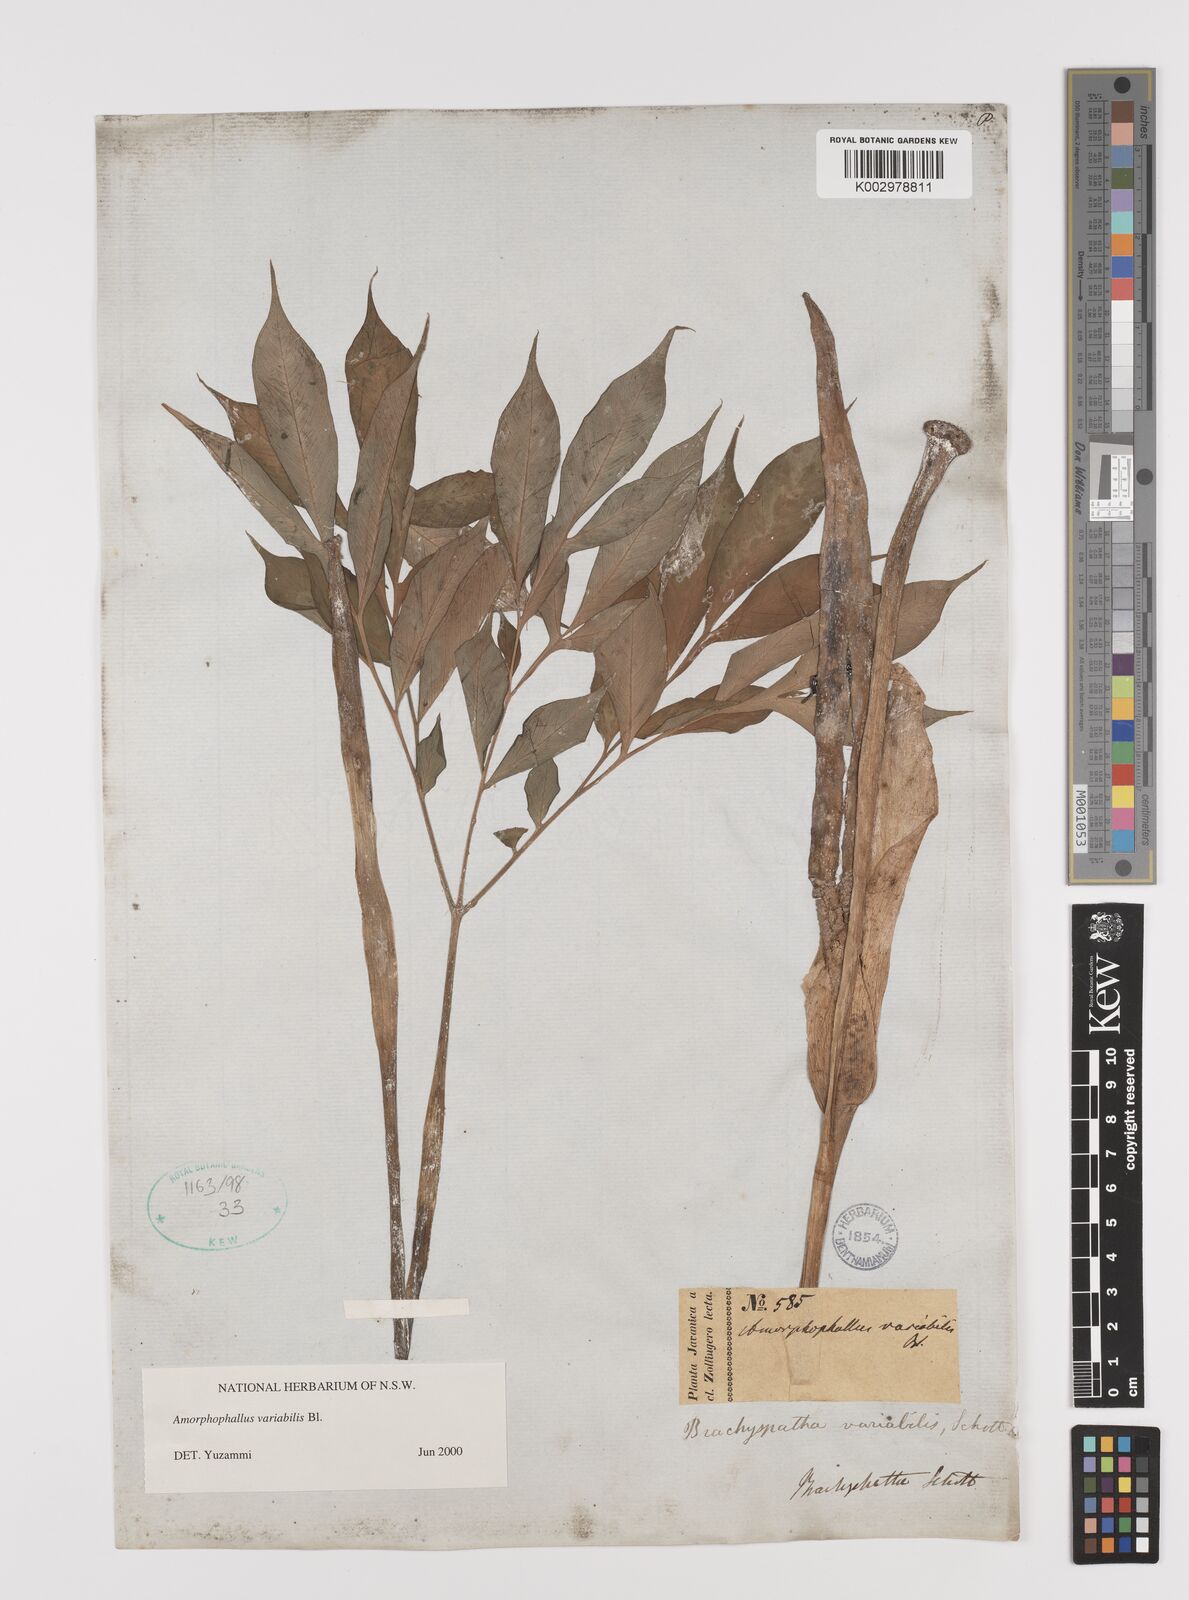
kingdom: Plantae
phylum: Tracheophyta
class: Liliopsida
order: Alismatales
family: Araceae
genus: Amorphophallus
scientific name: Amorphophallus variabilis
